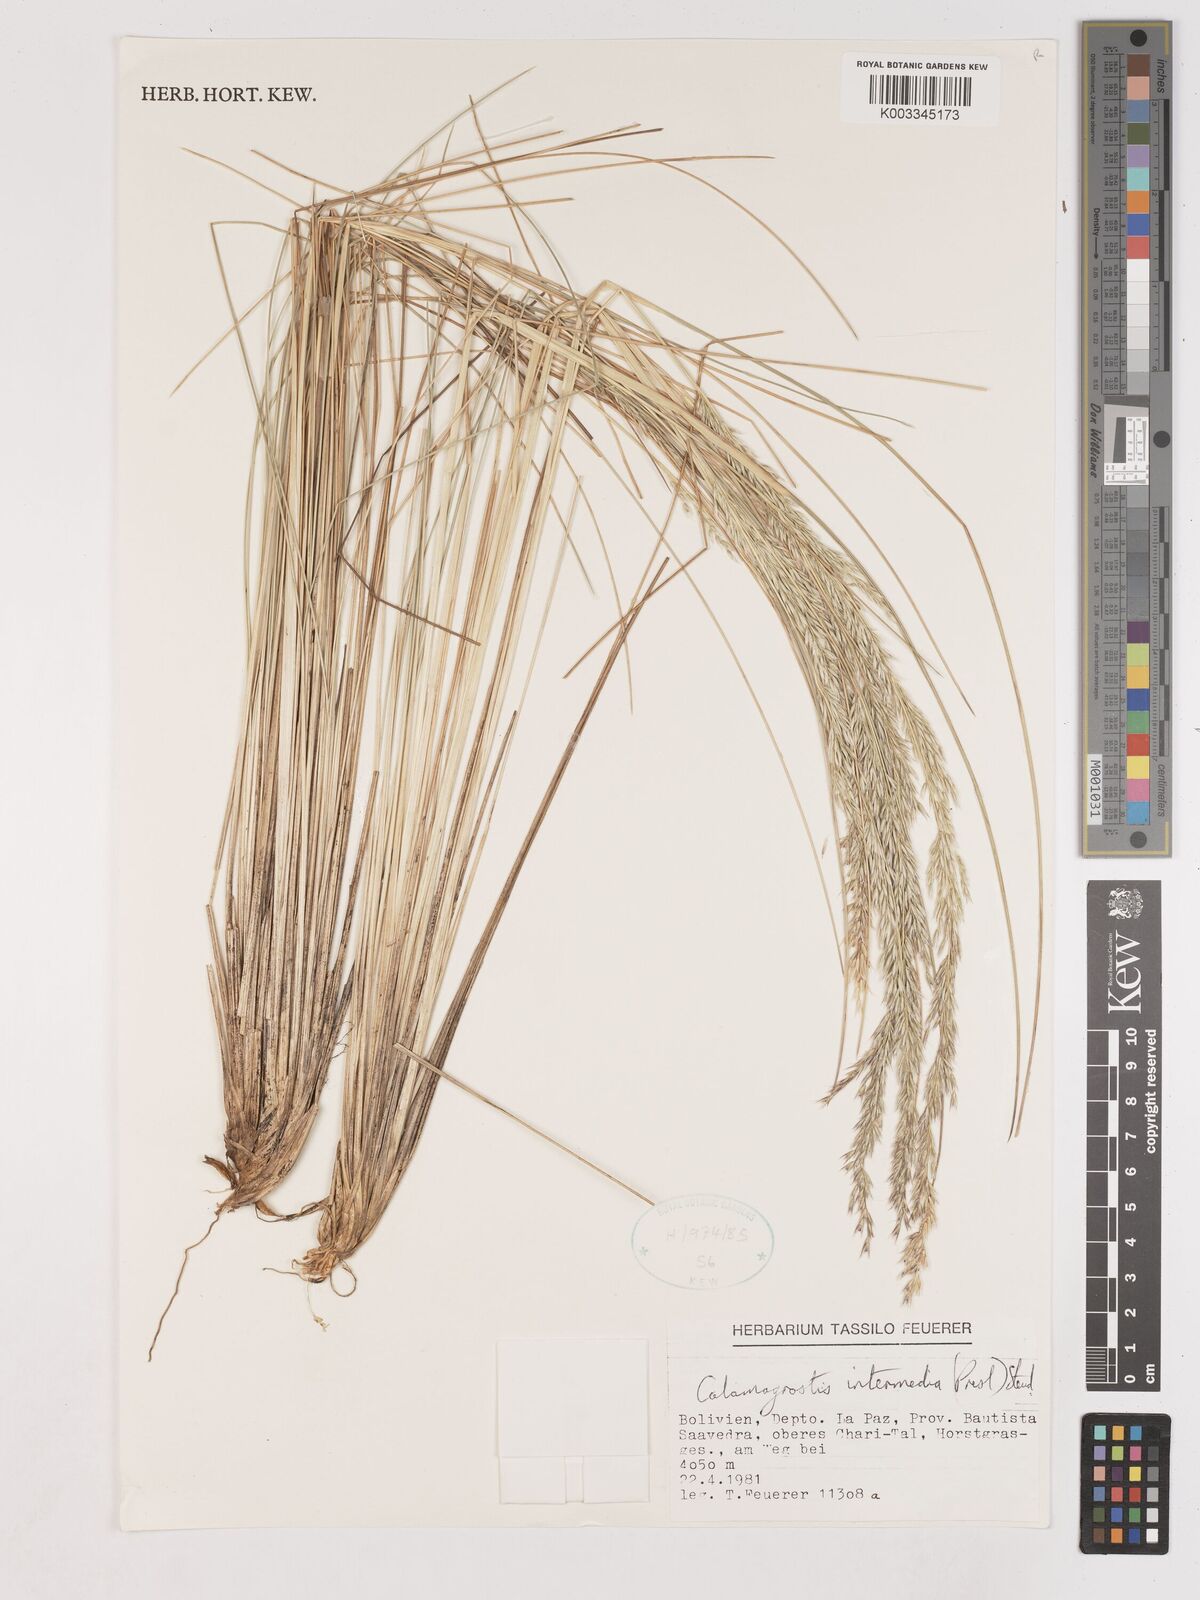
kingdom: Plantae
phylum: Tracheophyta
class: Liliopsida
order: Poales
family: Poaceae
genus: Calamagrostis
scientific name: Calamagrostis
